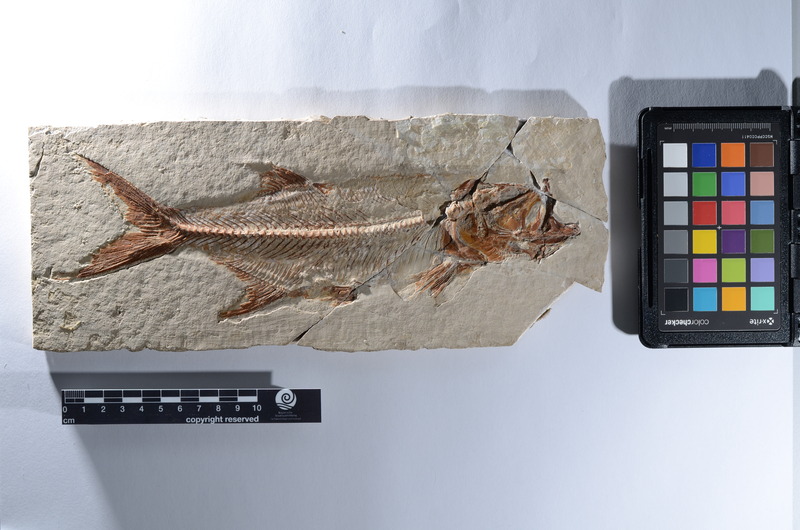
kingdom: Animalia
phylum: Chordata
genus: Pachythrissops
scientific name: Pachythrissops propterus
